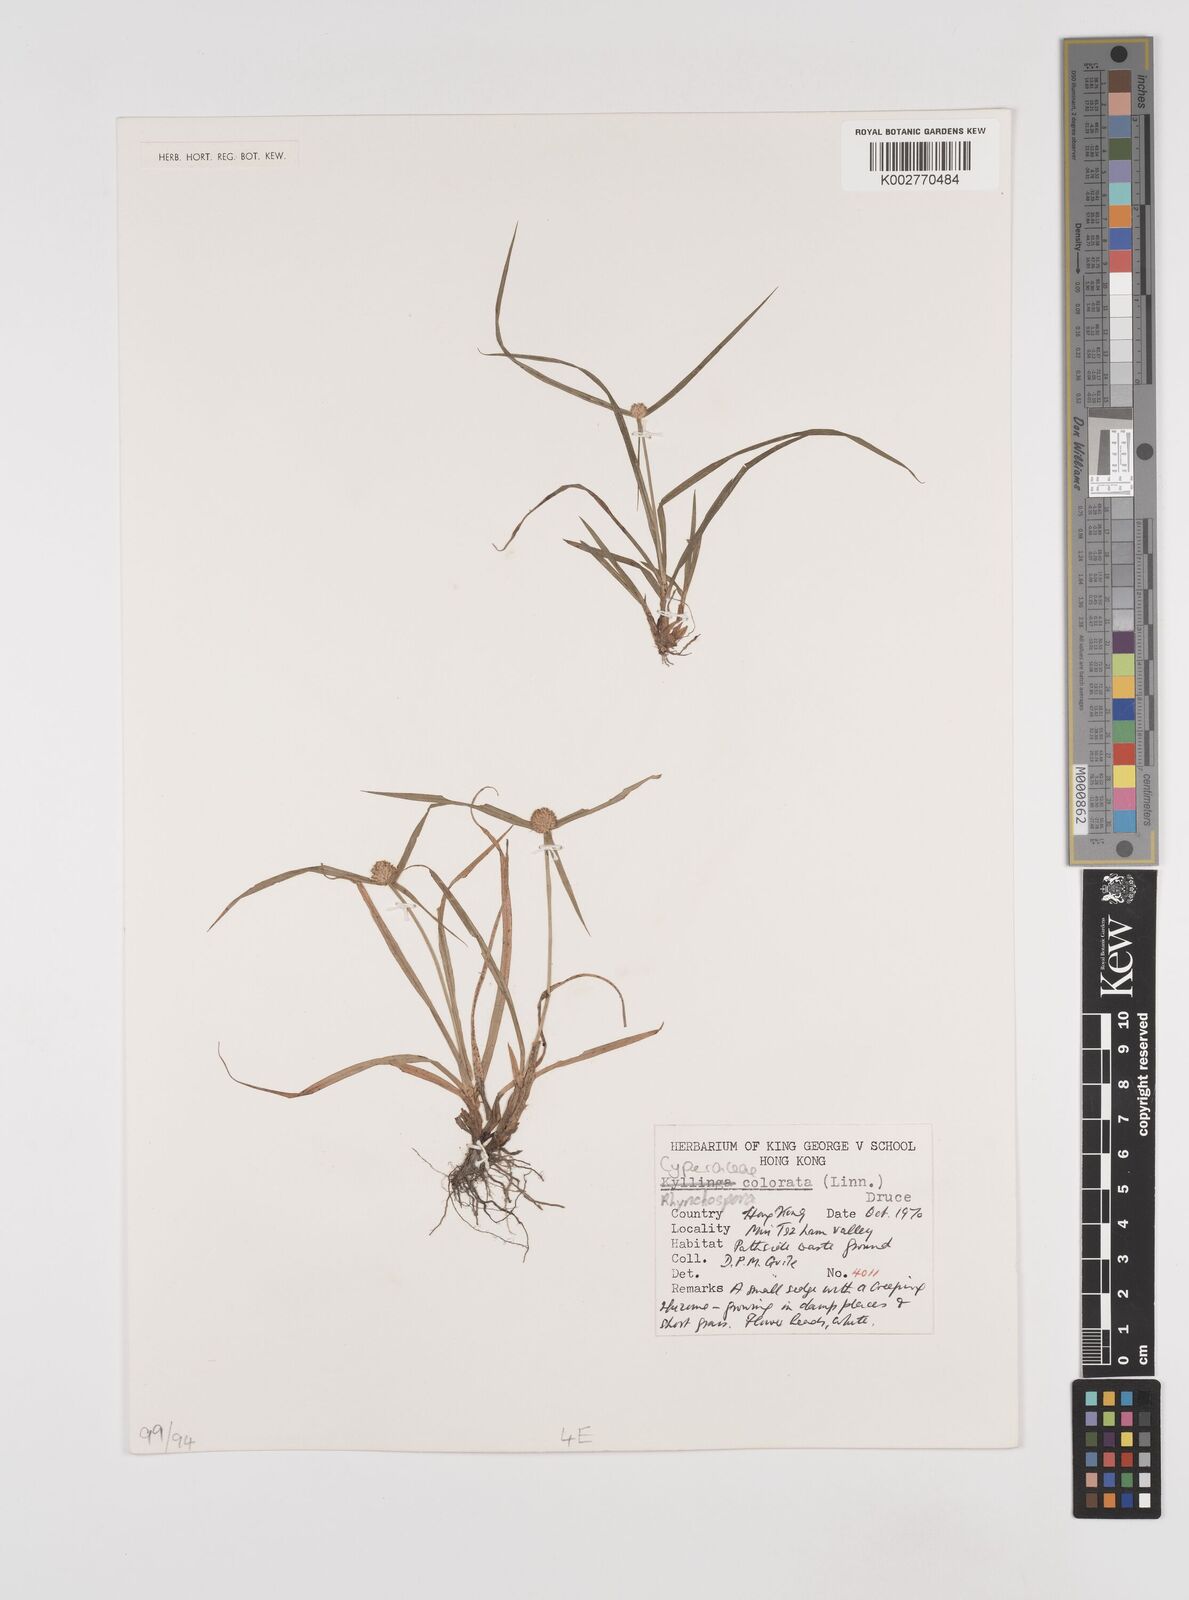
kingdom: Plantae
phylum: Tracheophyta
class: Liliopsida
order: Poales
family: Cyperaceae
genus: Rhynchospora
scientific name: Rhynchospora
